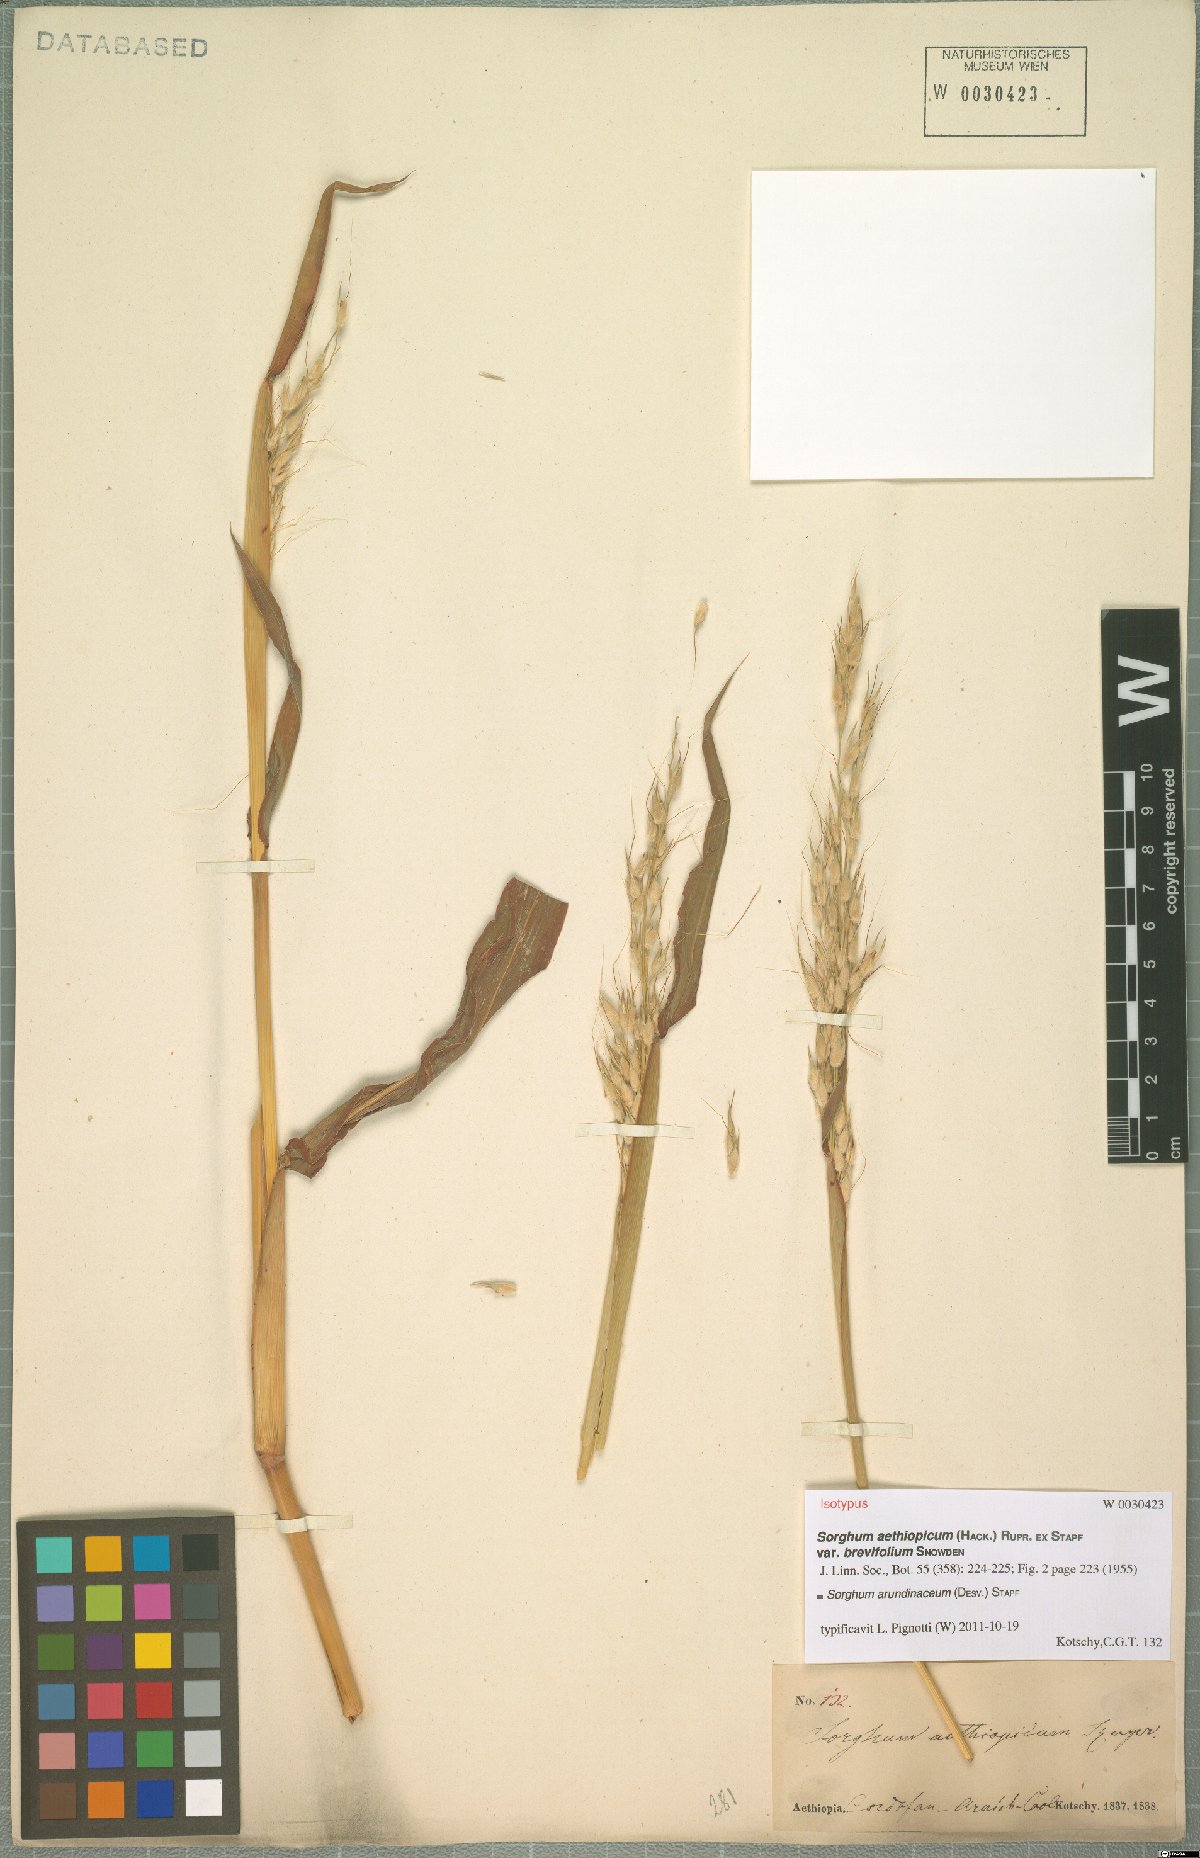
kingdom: Plantae
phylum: Tracheophyta
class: Liliopsida
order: Poales
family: Poaceae
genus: Sorghum
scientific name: Sorghum arundinaceum
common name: Sorghum
